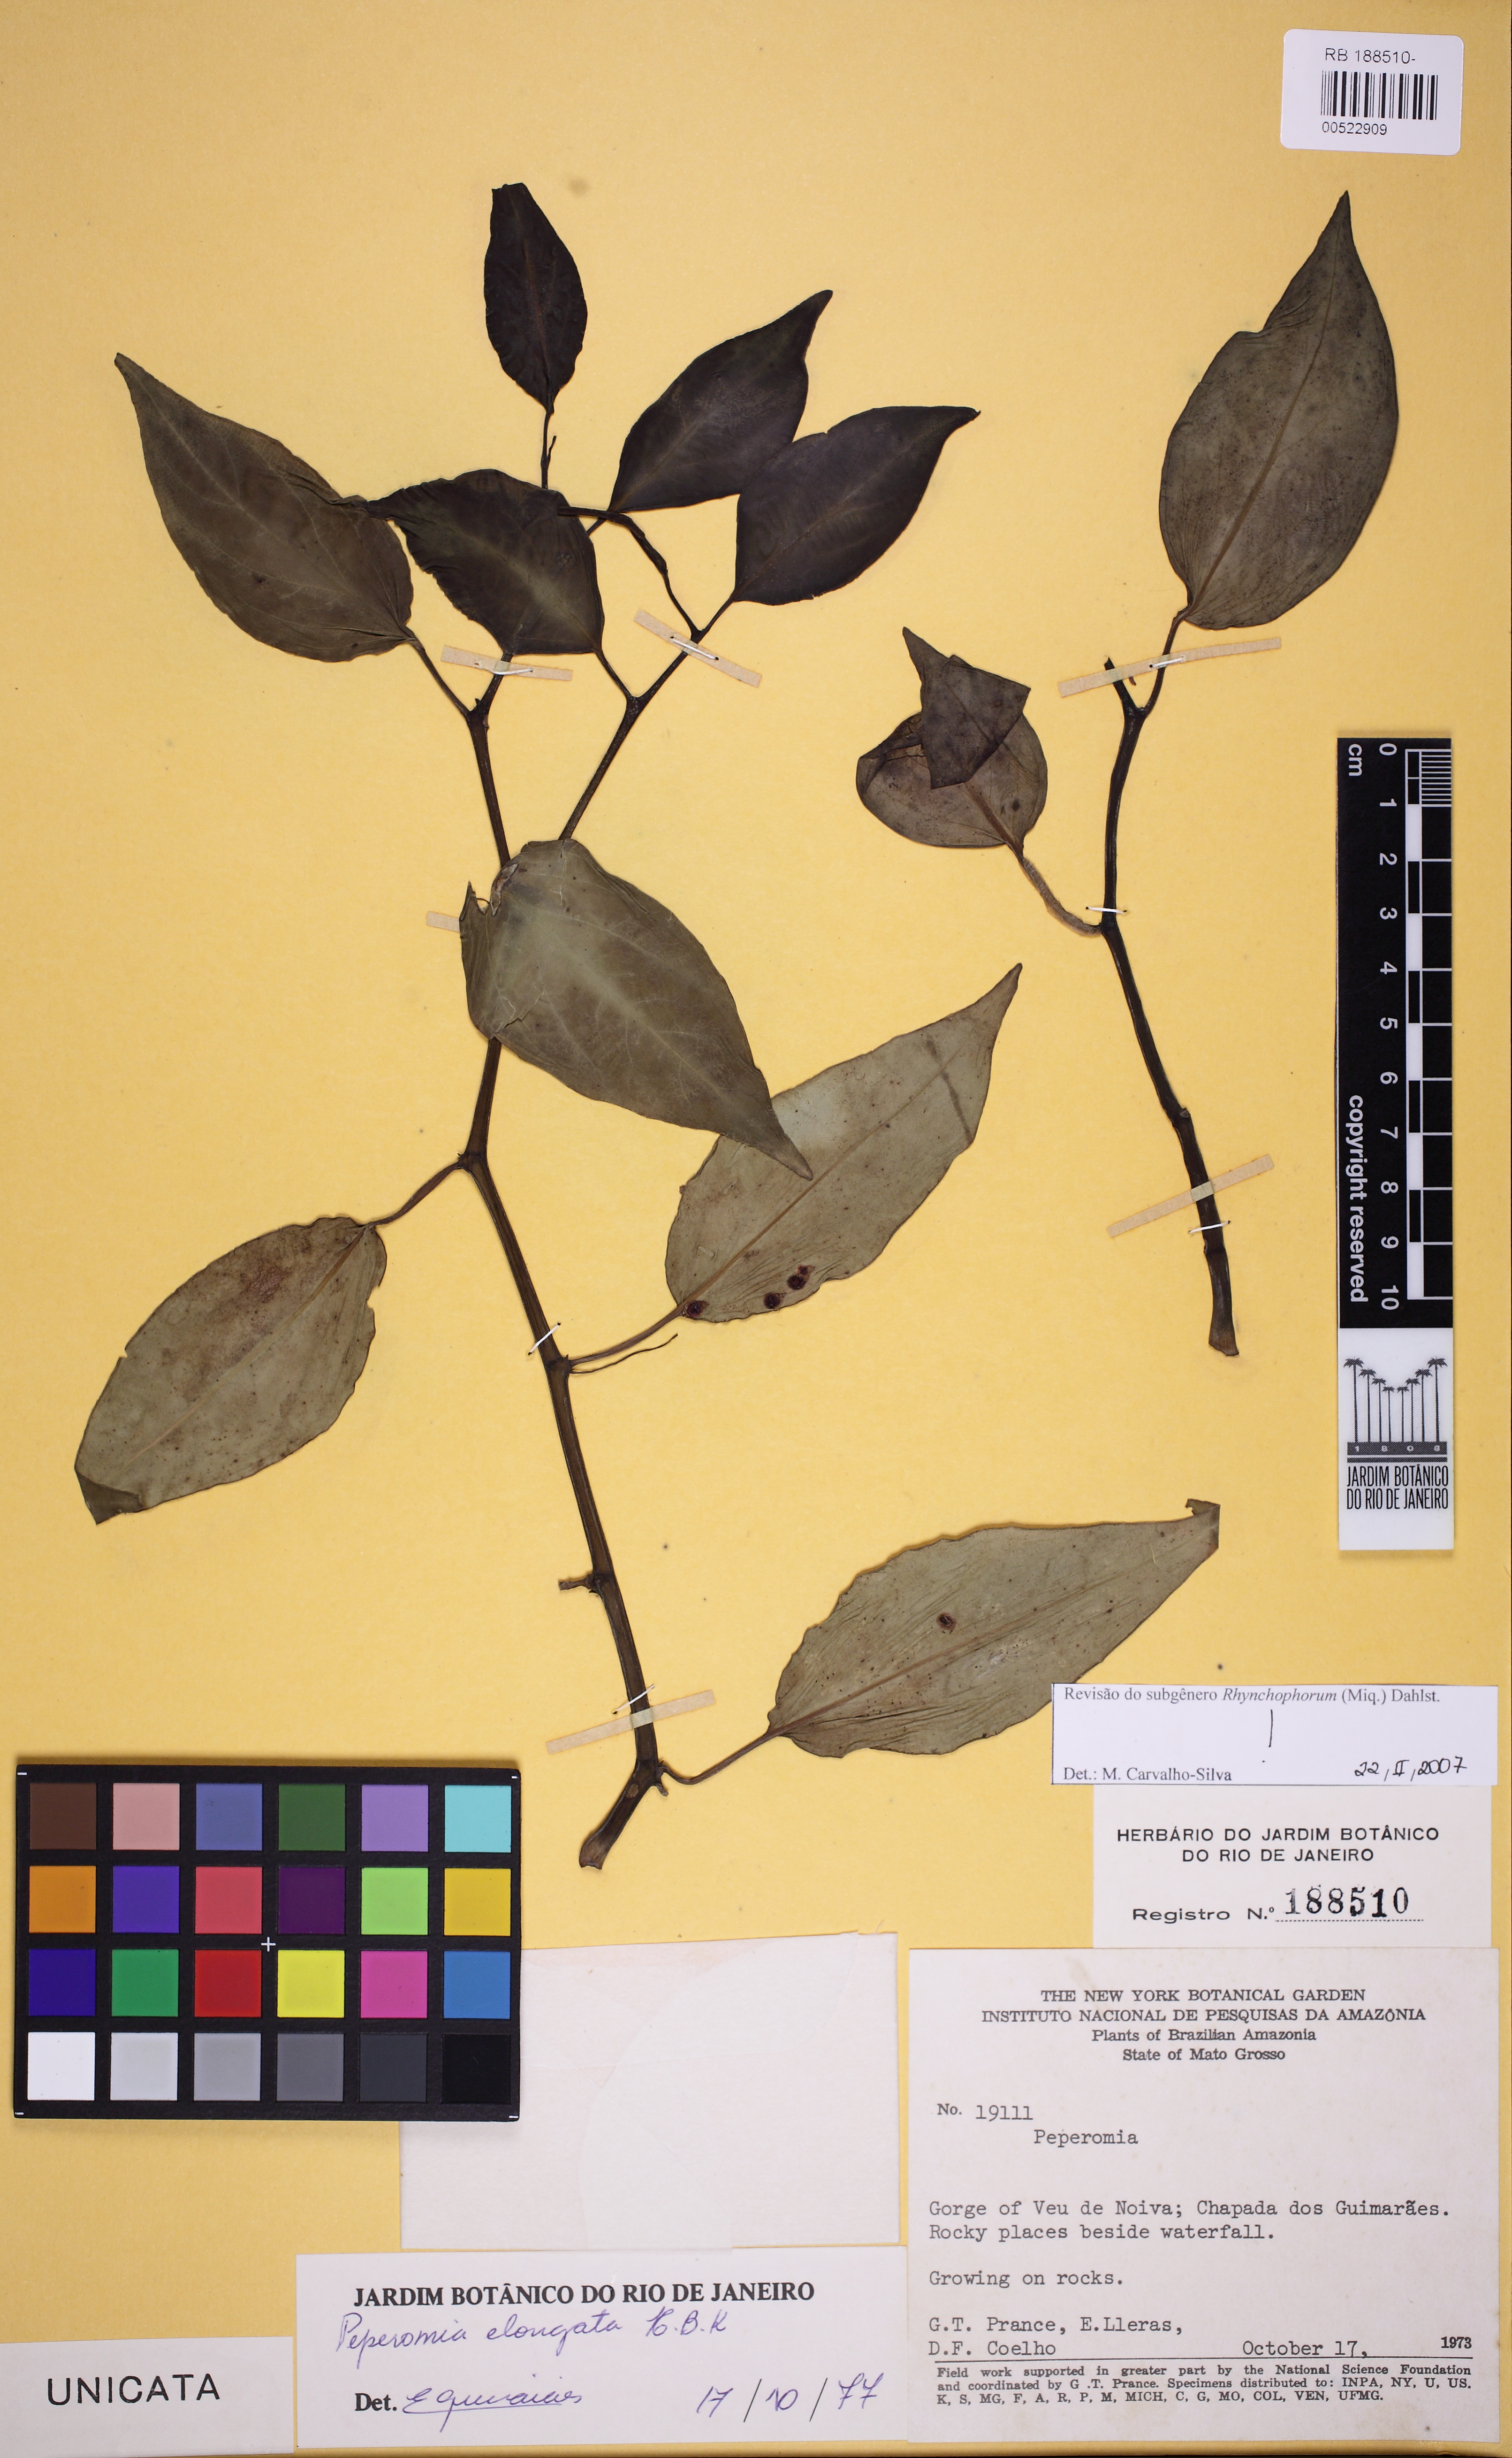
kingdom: Plantae
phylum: Tracheophyta
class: Magnoliopsida
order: Piperales
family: Piperaceae
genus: Peperomia
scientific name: Peperomia elongata
